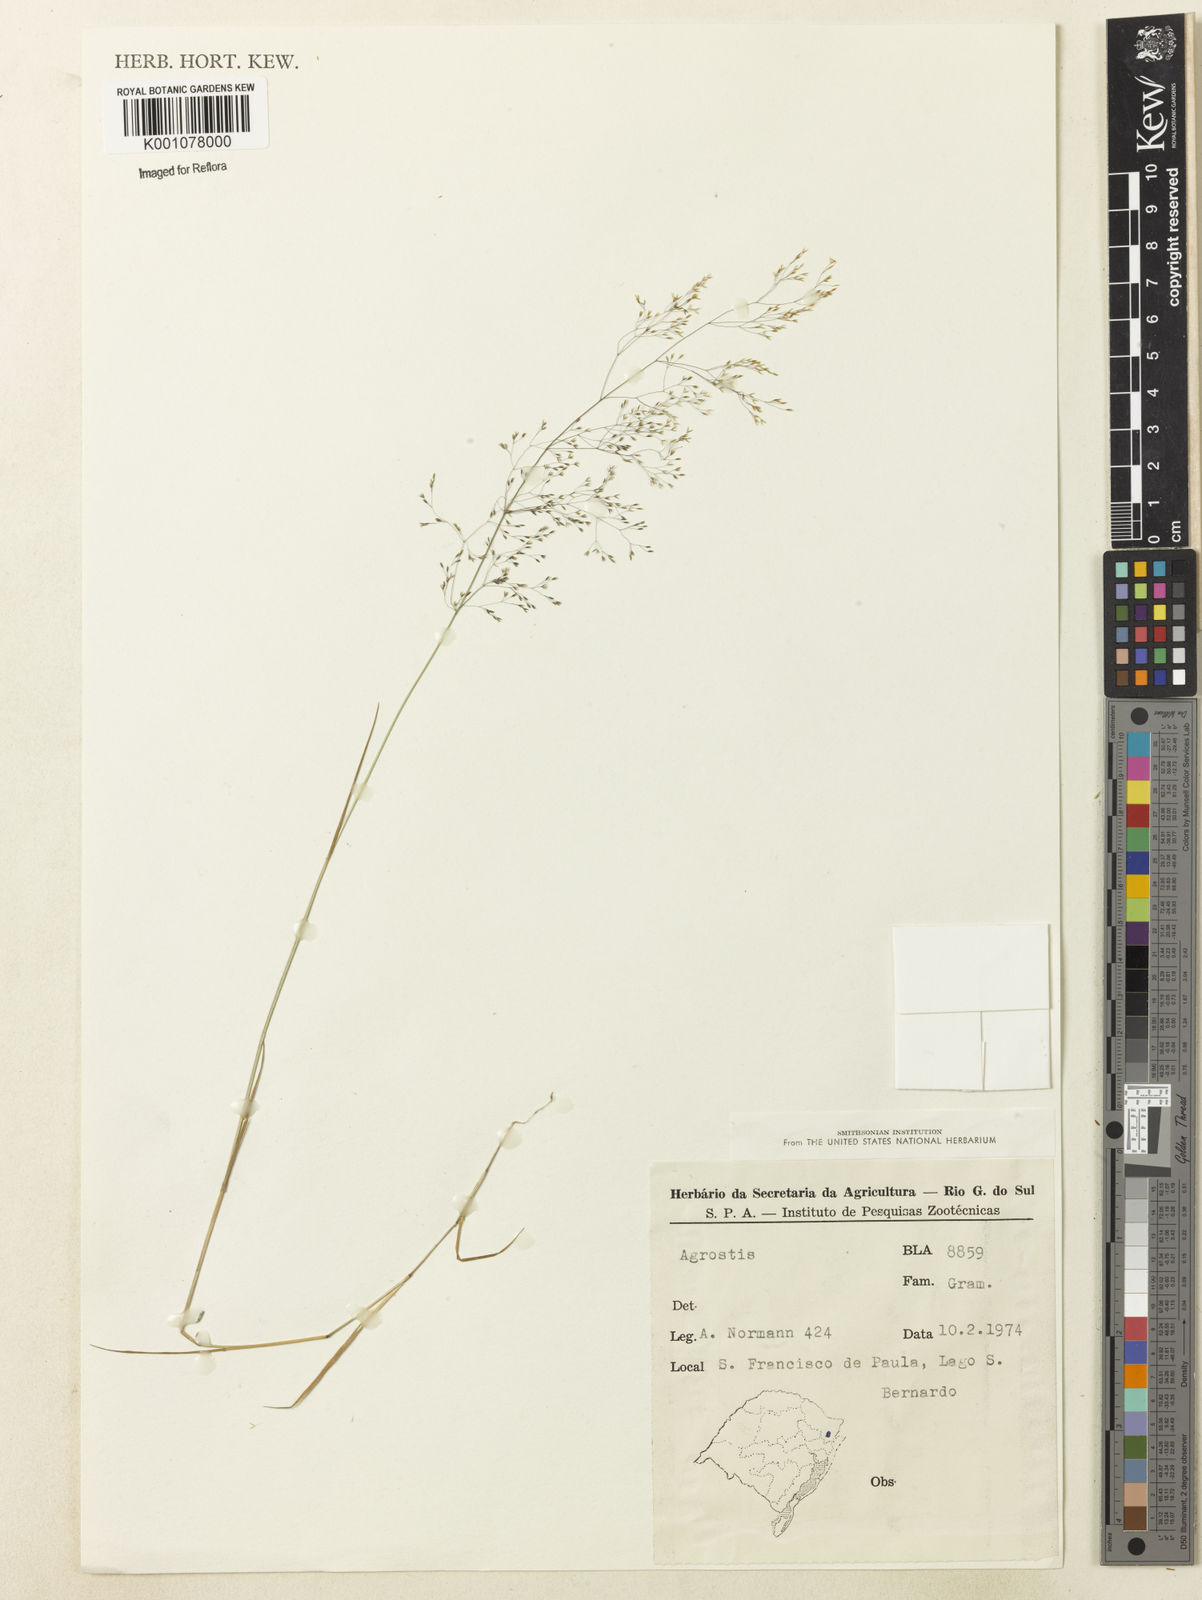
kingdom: Plantae
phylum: Tracheophyta
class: Liliopsida
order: Poales
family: Poaceae
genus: Agrostis
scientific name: Agrostis
